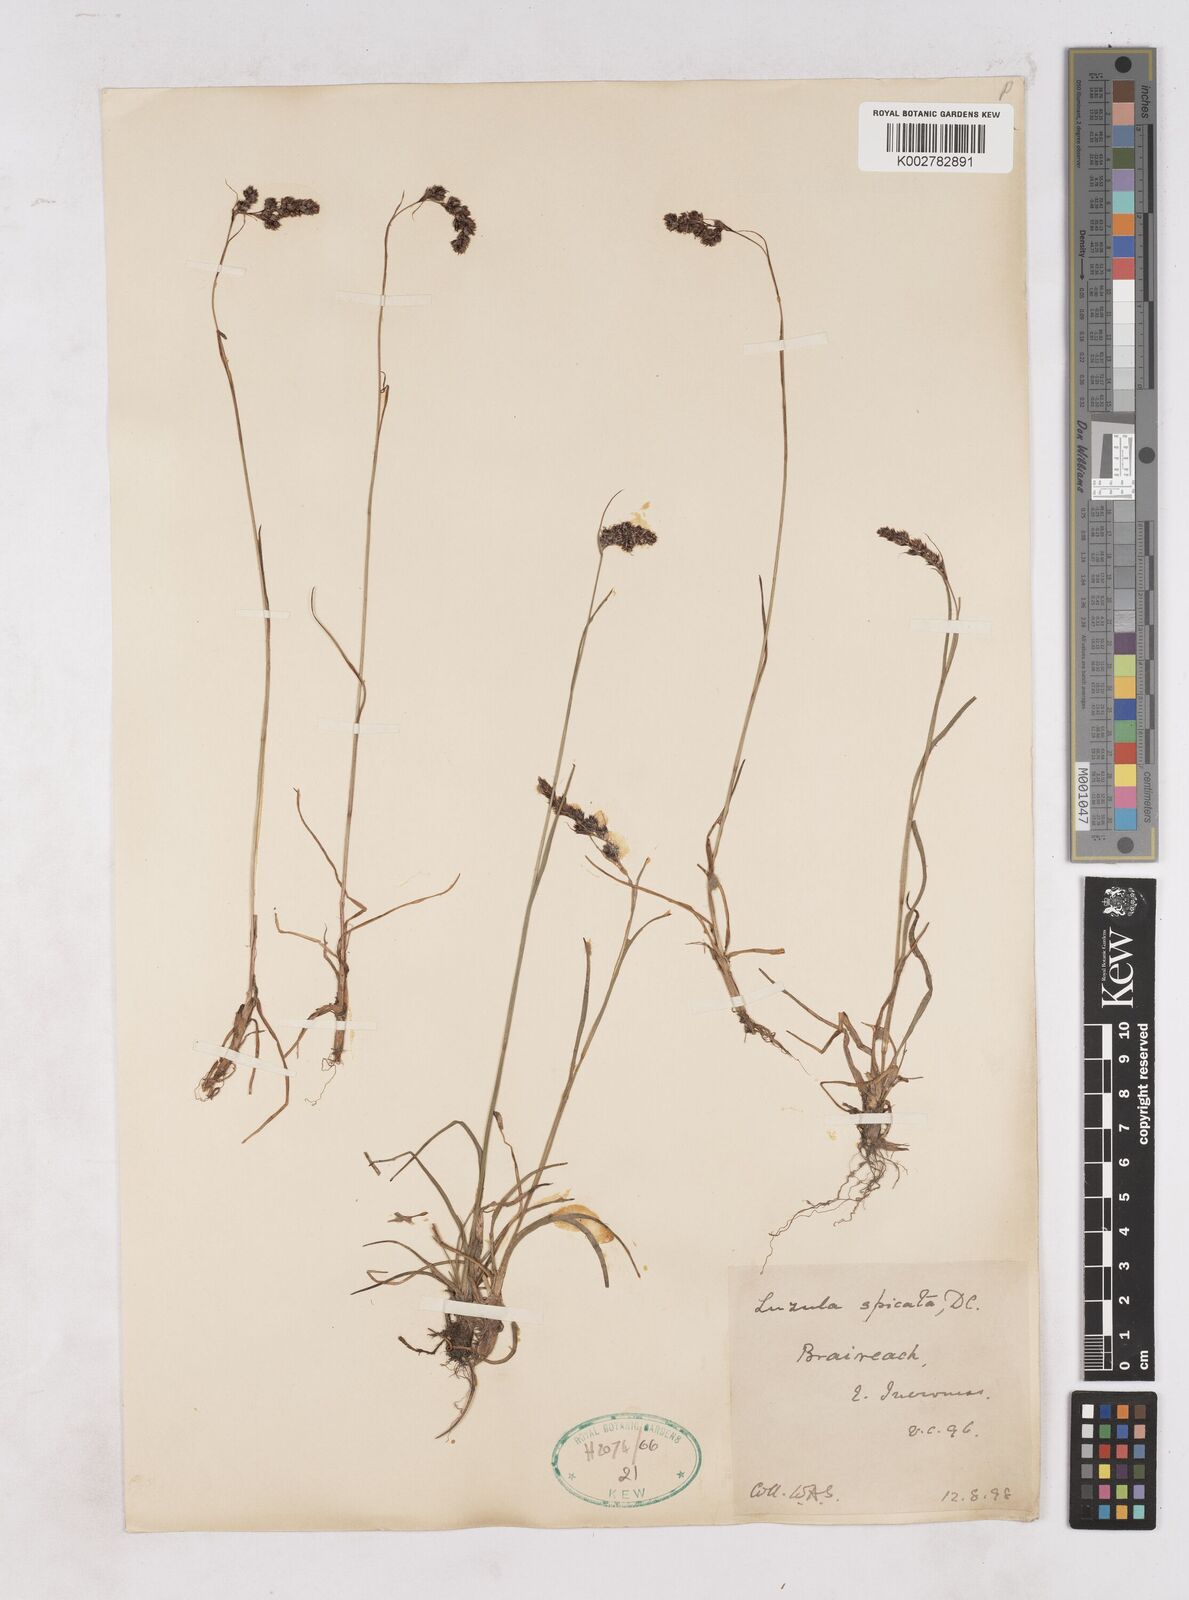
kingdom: Plantae
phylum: Tracheophyta
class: Liliopsida
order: Poales
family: Juncaceae
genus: Luzula
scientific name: Luzula campestris
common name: Field wood-rush
